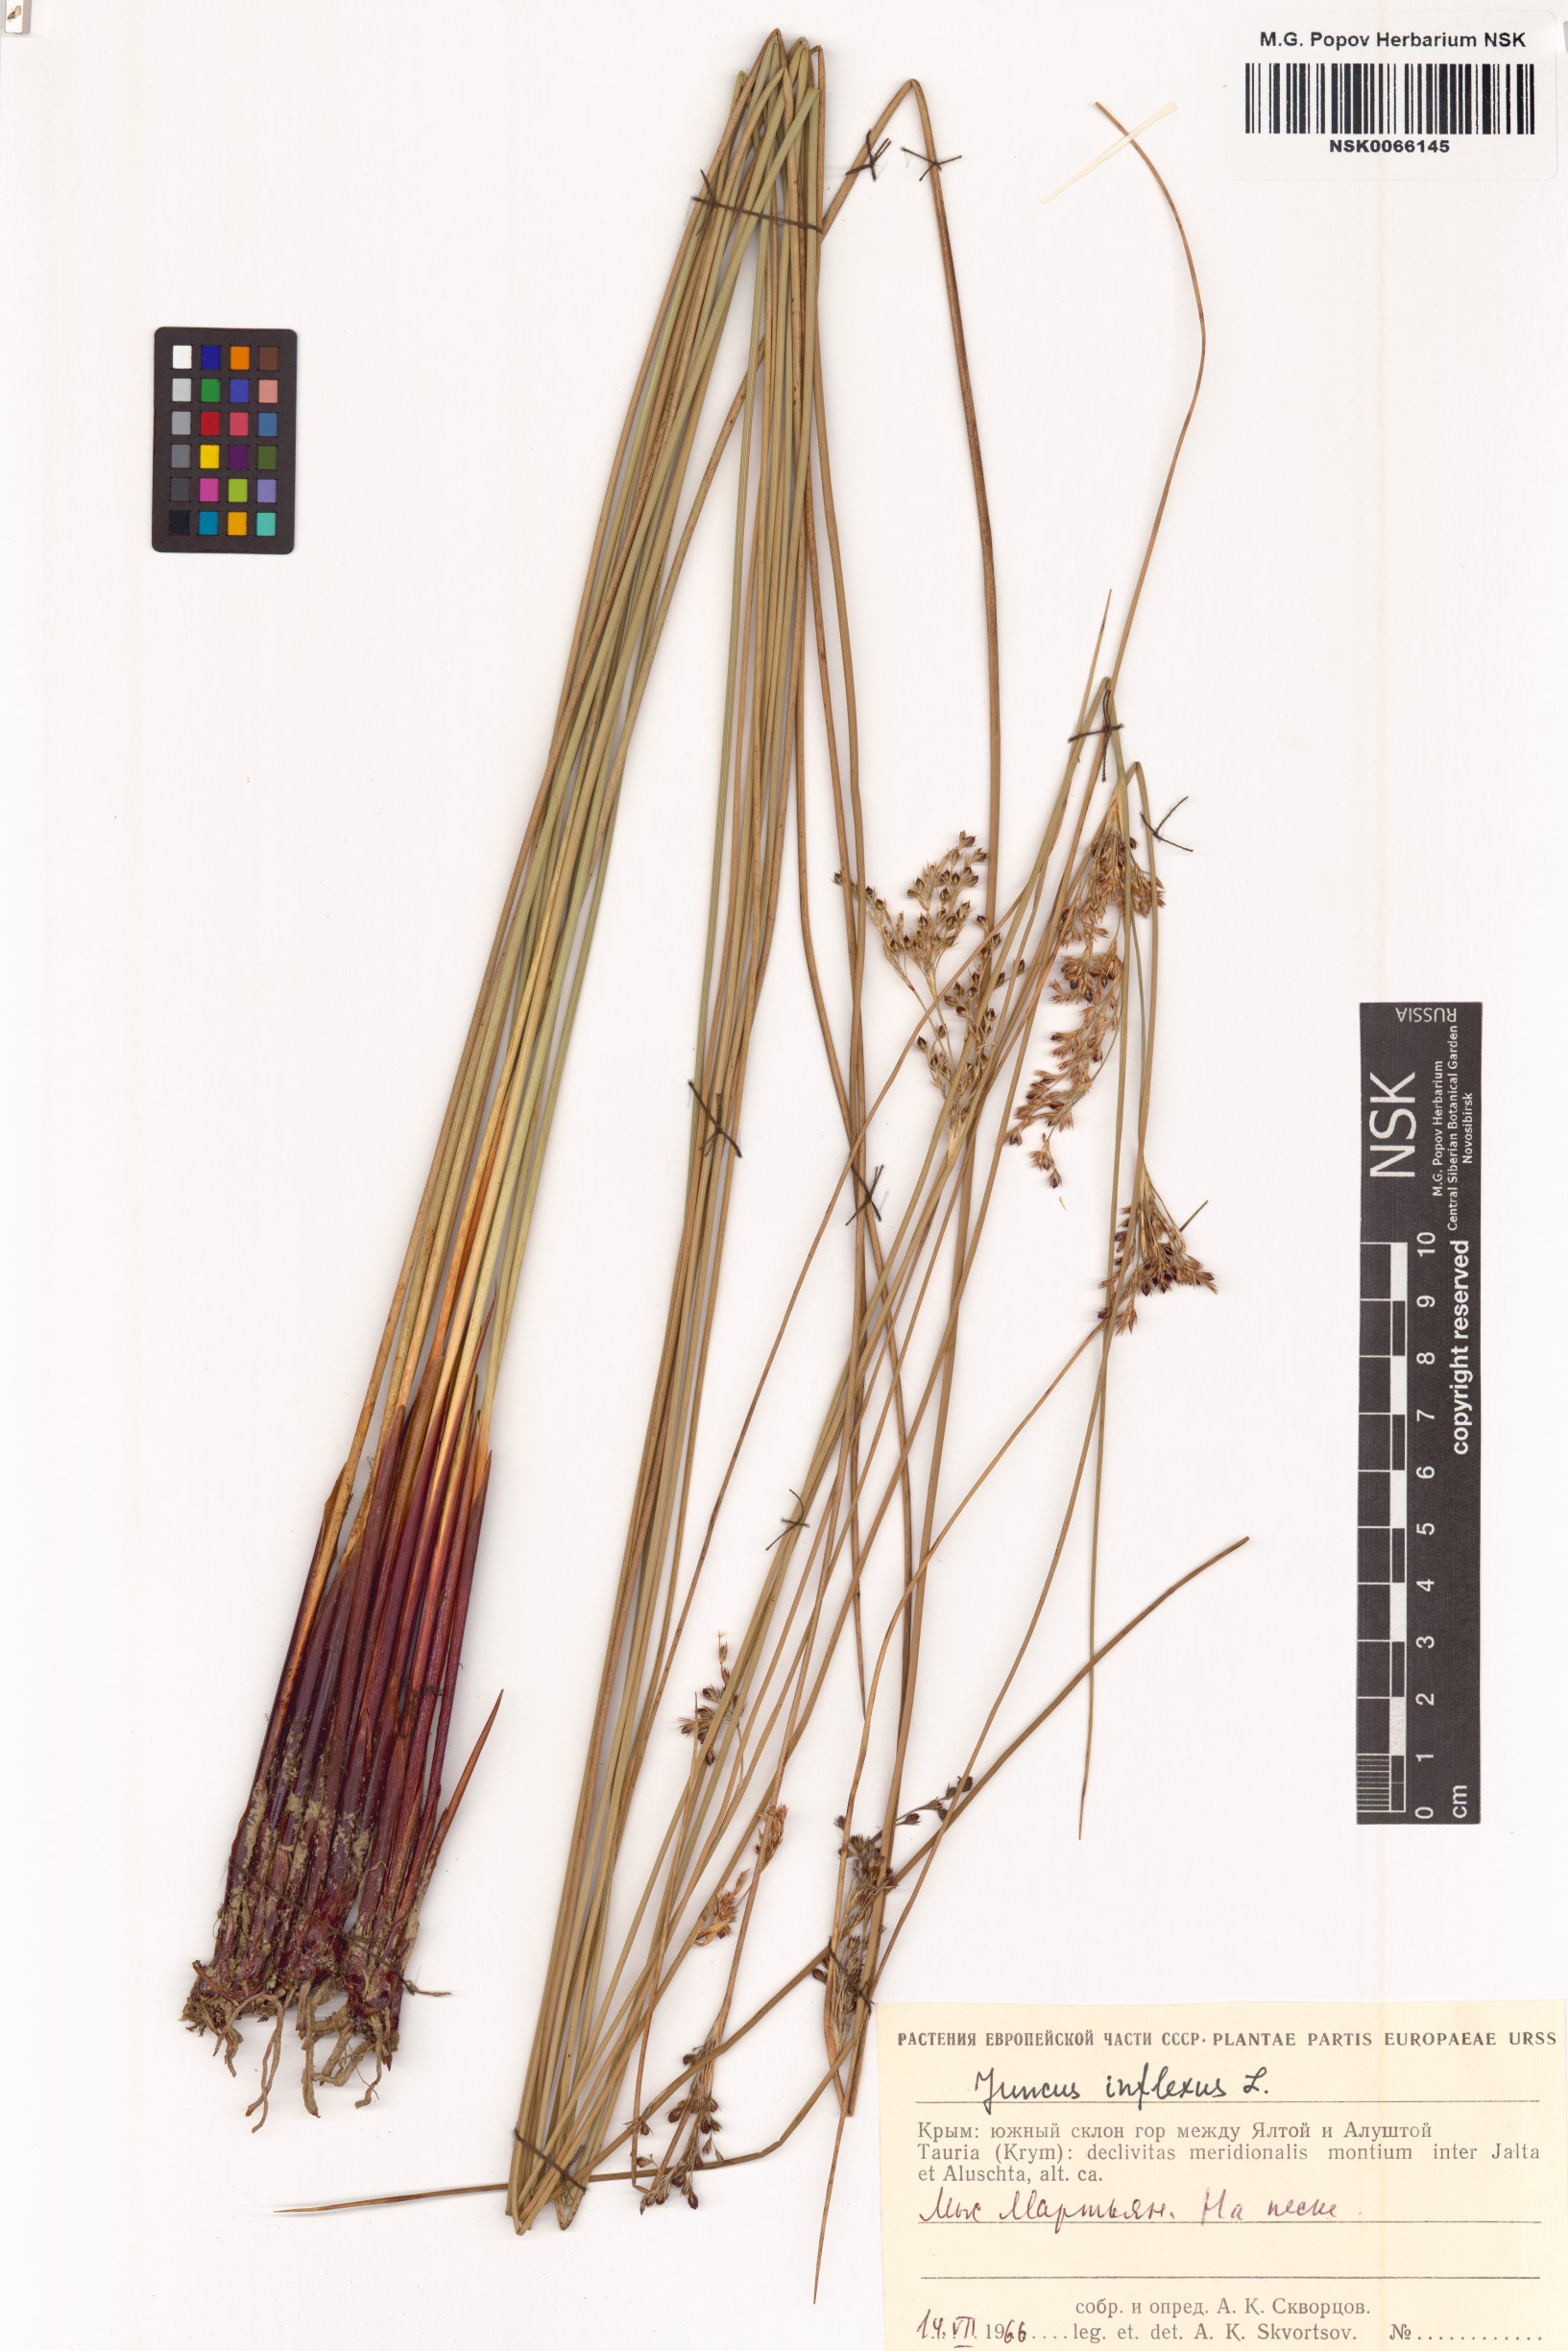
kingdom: Plantae
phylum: Tracheophyta
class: Liliopsida
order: Poales
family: Juncaceae
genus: Juncus
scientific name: Juncus inflexus
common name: Hard rush
